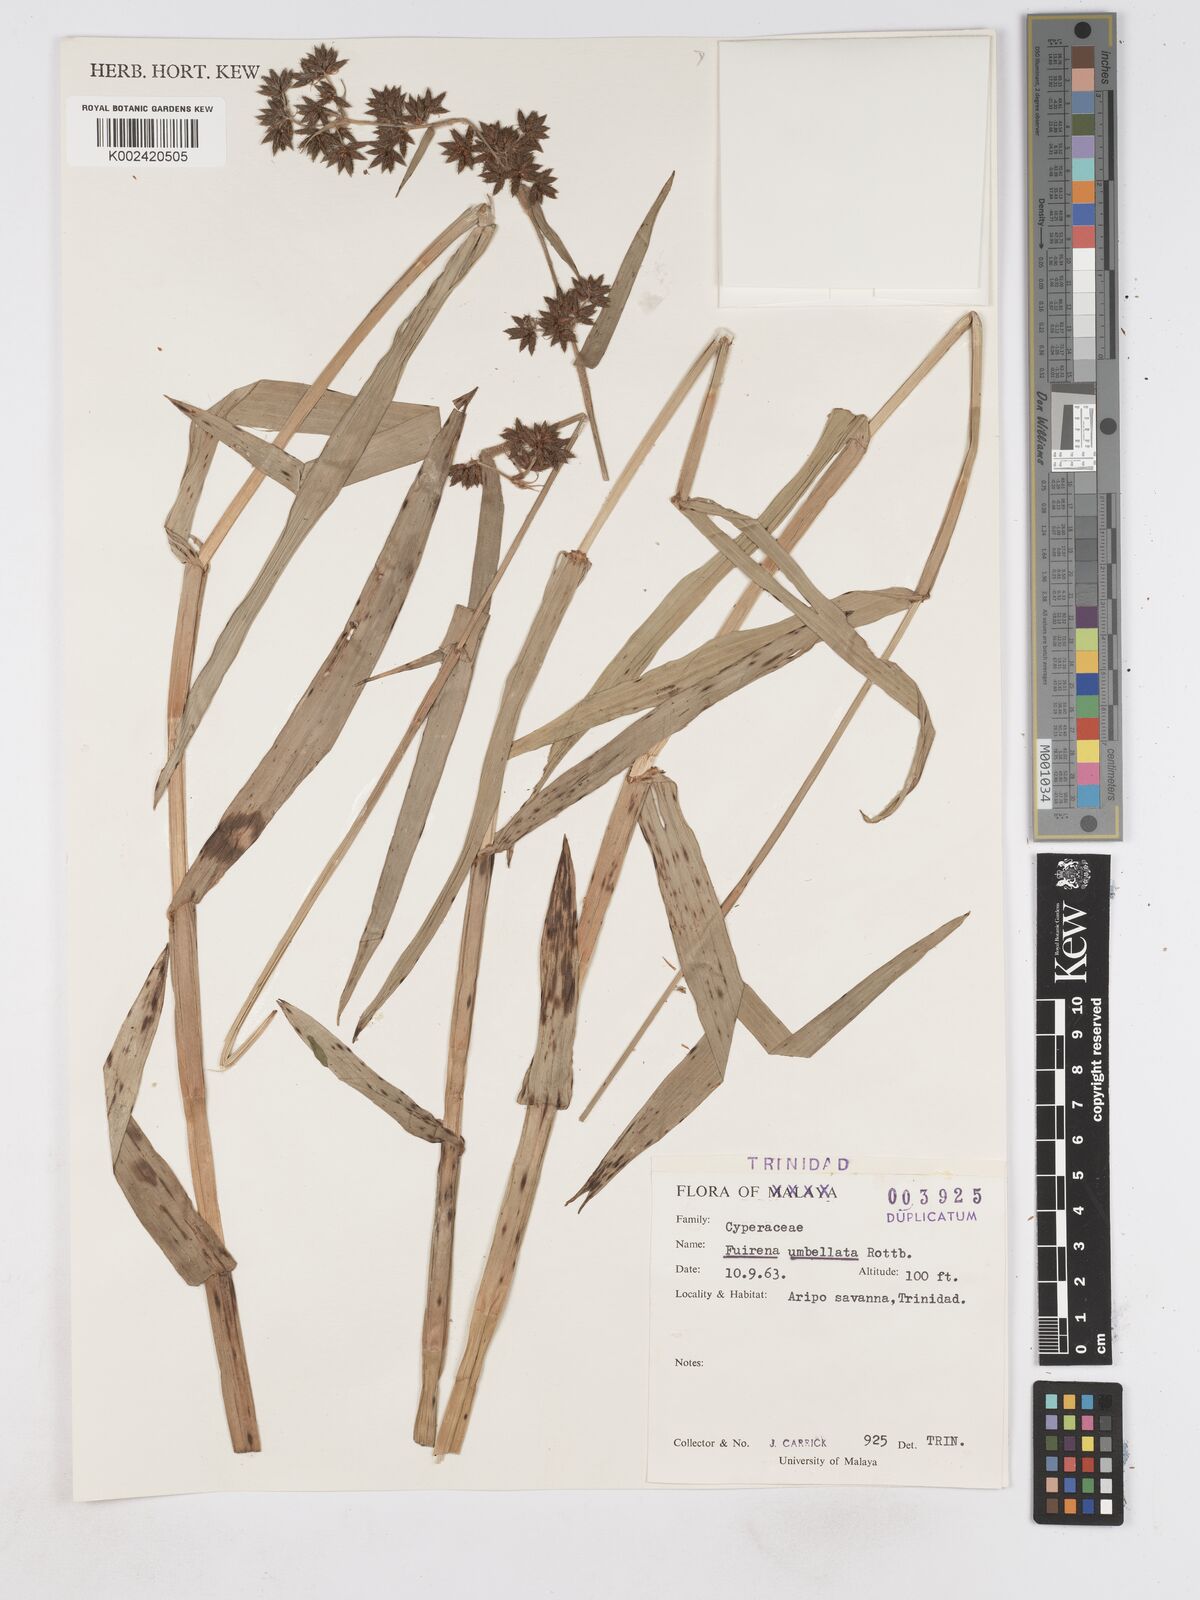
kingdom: Plantae
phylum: Tracheophyta
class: Liliopsida
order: Poales
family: Cyperaceae
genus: Fuirena
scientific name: Fuirena umbellata
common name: Yefen
